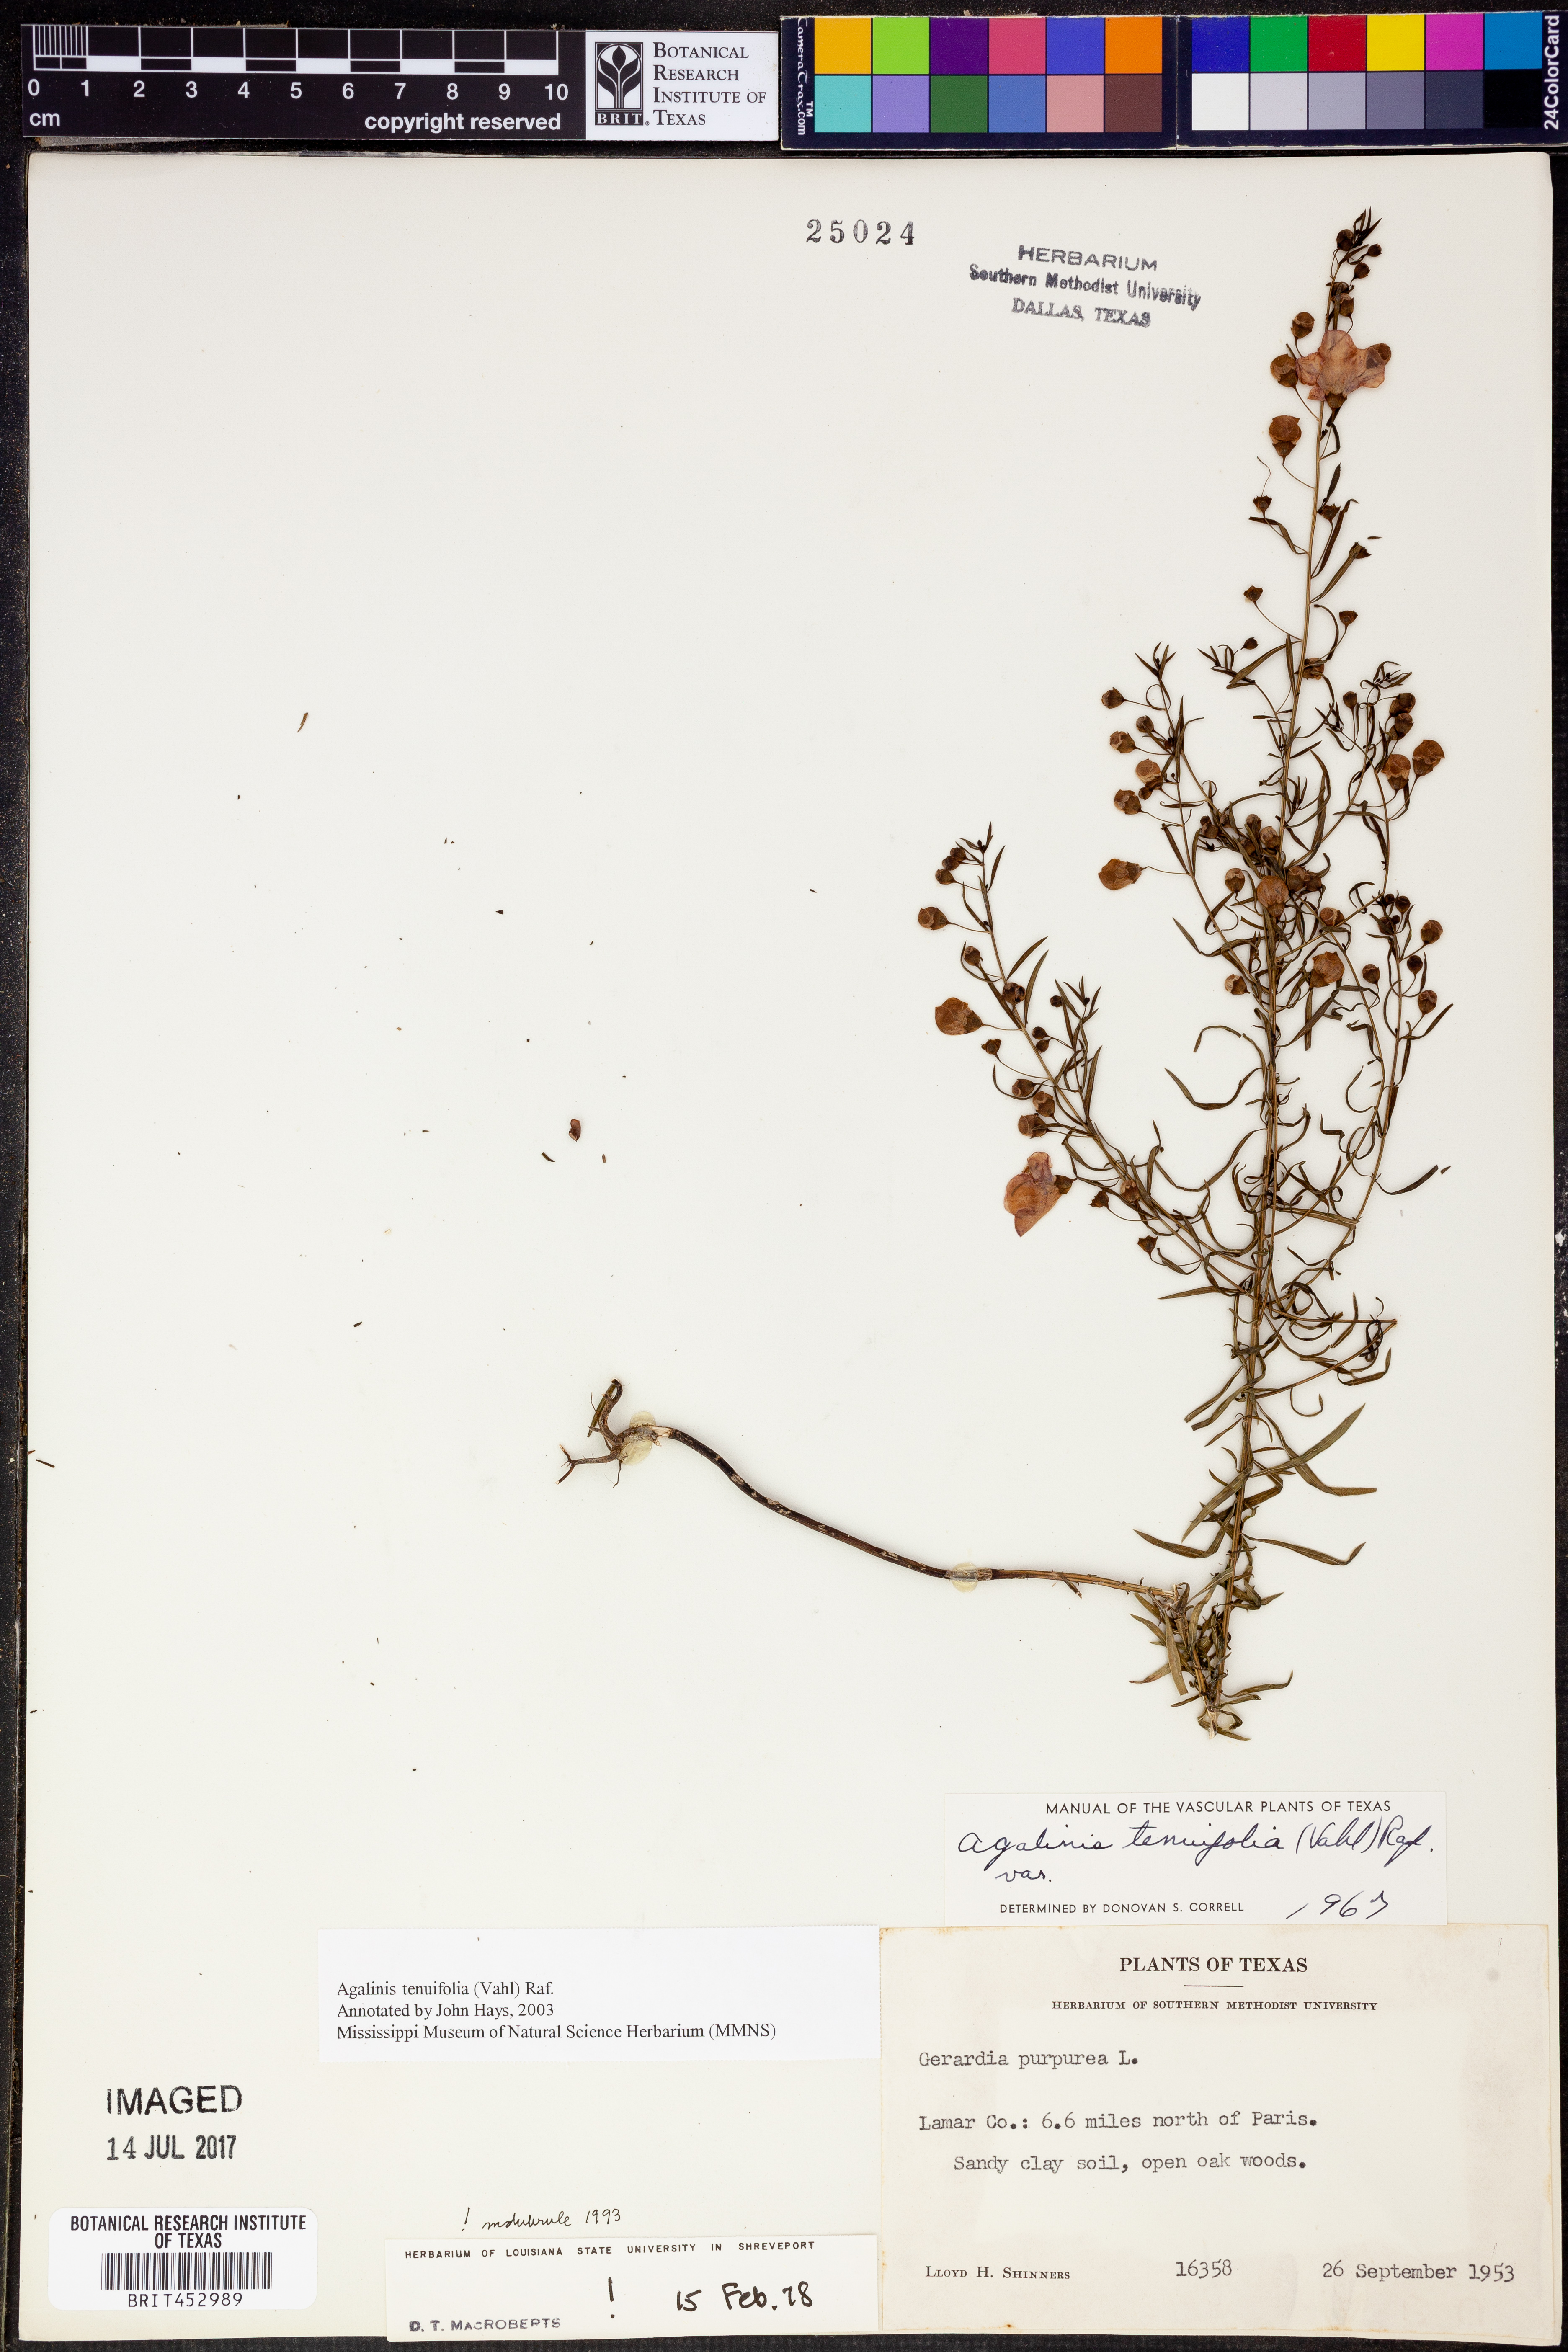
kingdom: Plantae
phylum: Tracheophyta
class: Magnoliopsida
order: Lamiales
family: Orobanchaceae
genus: Agalinis
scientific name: Agalinis tenuifolia
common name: Slender agalinis
